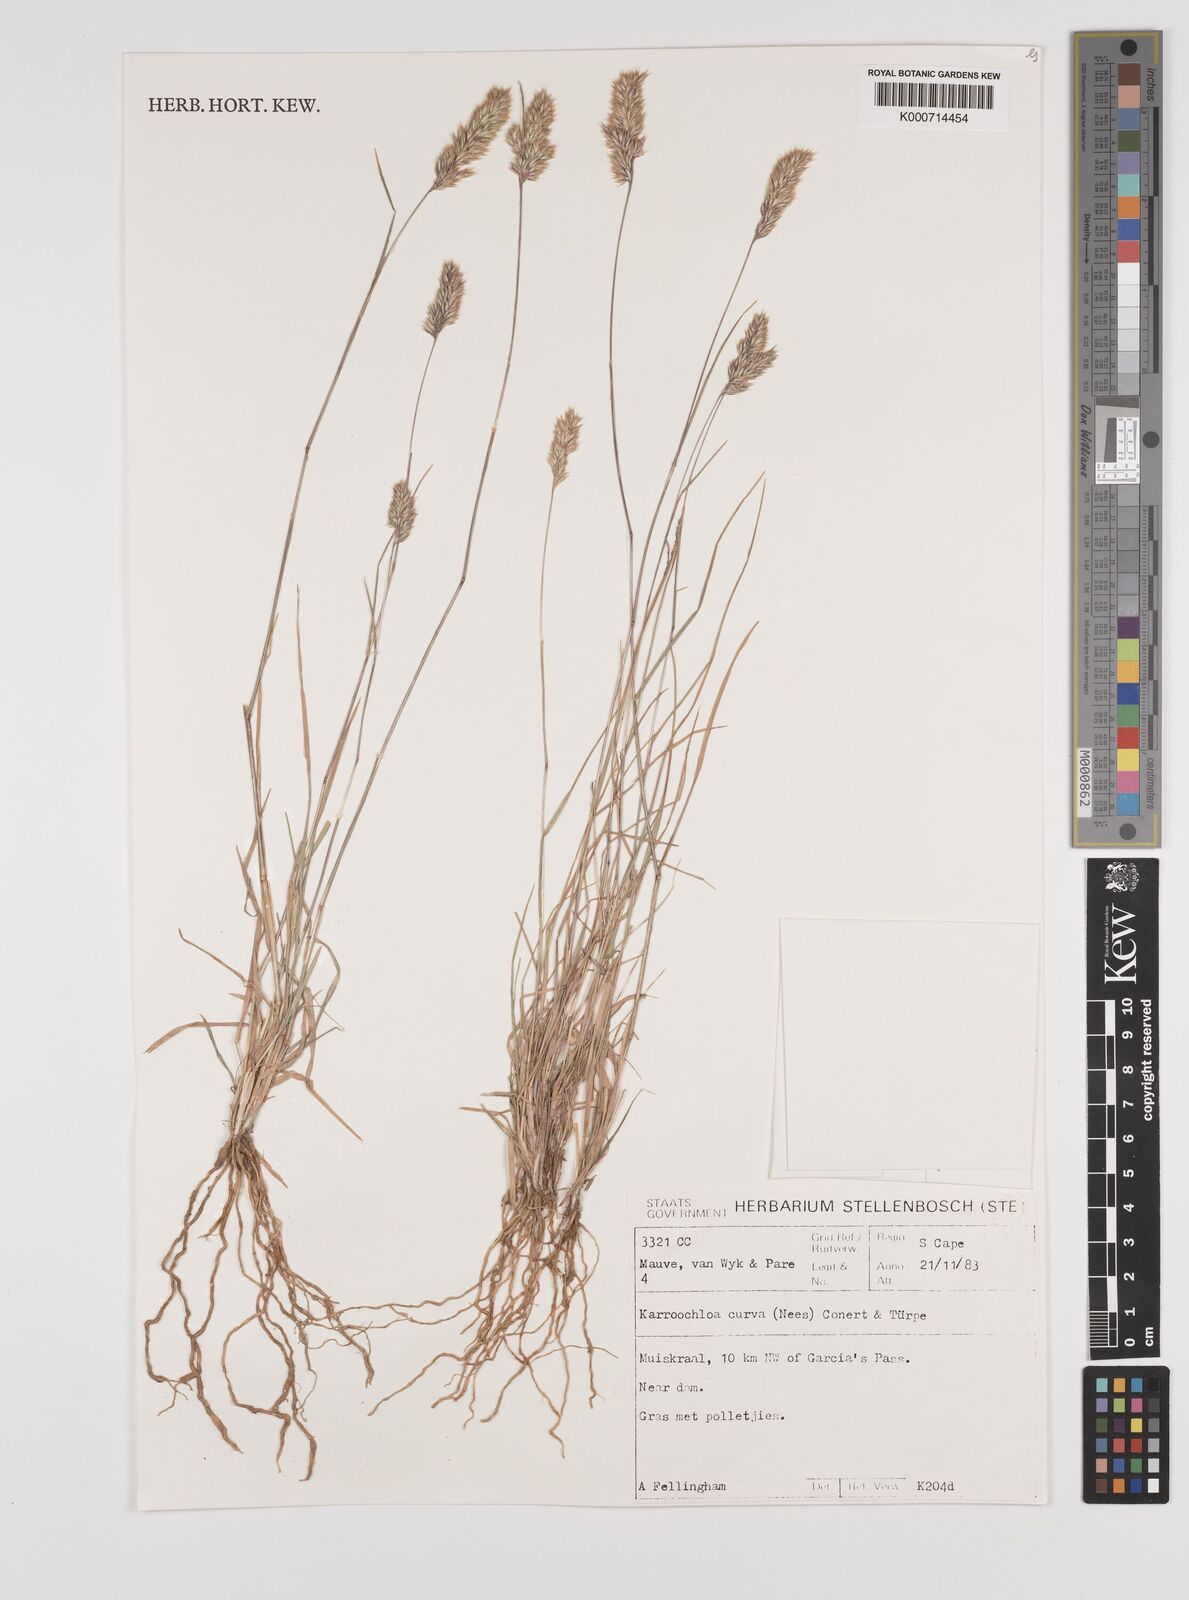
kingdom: Plantae
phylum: Tracheophyta
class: Liliopsida
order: Poales
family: Poaceae
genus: Rytidosperma
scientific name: Rytidosperma
